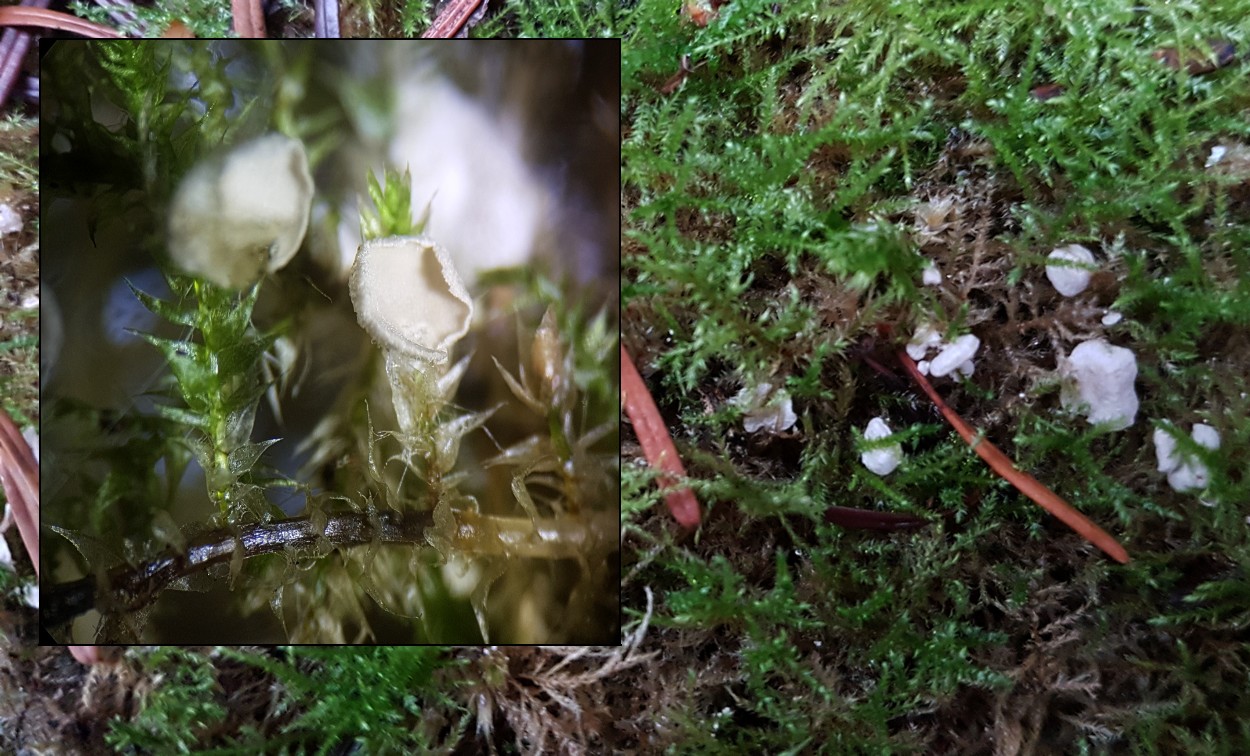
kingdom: Fungi
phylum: Basidiomycota
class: Agaricomycetes
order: Agaricales
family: Hygrophoraceae
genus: Arrhenia
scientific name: Arrhenia retiruga
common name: lille fontænehat
